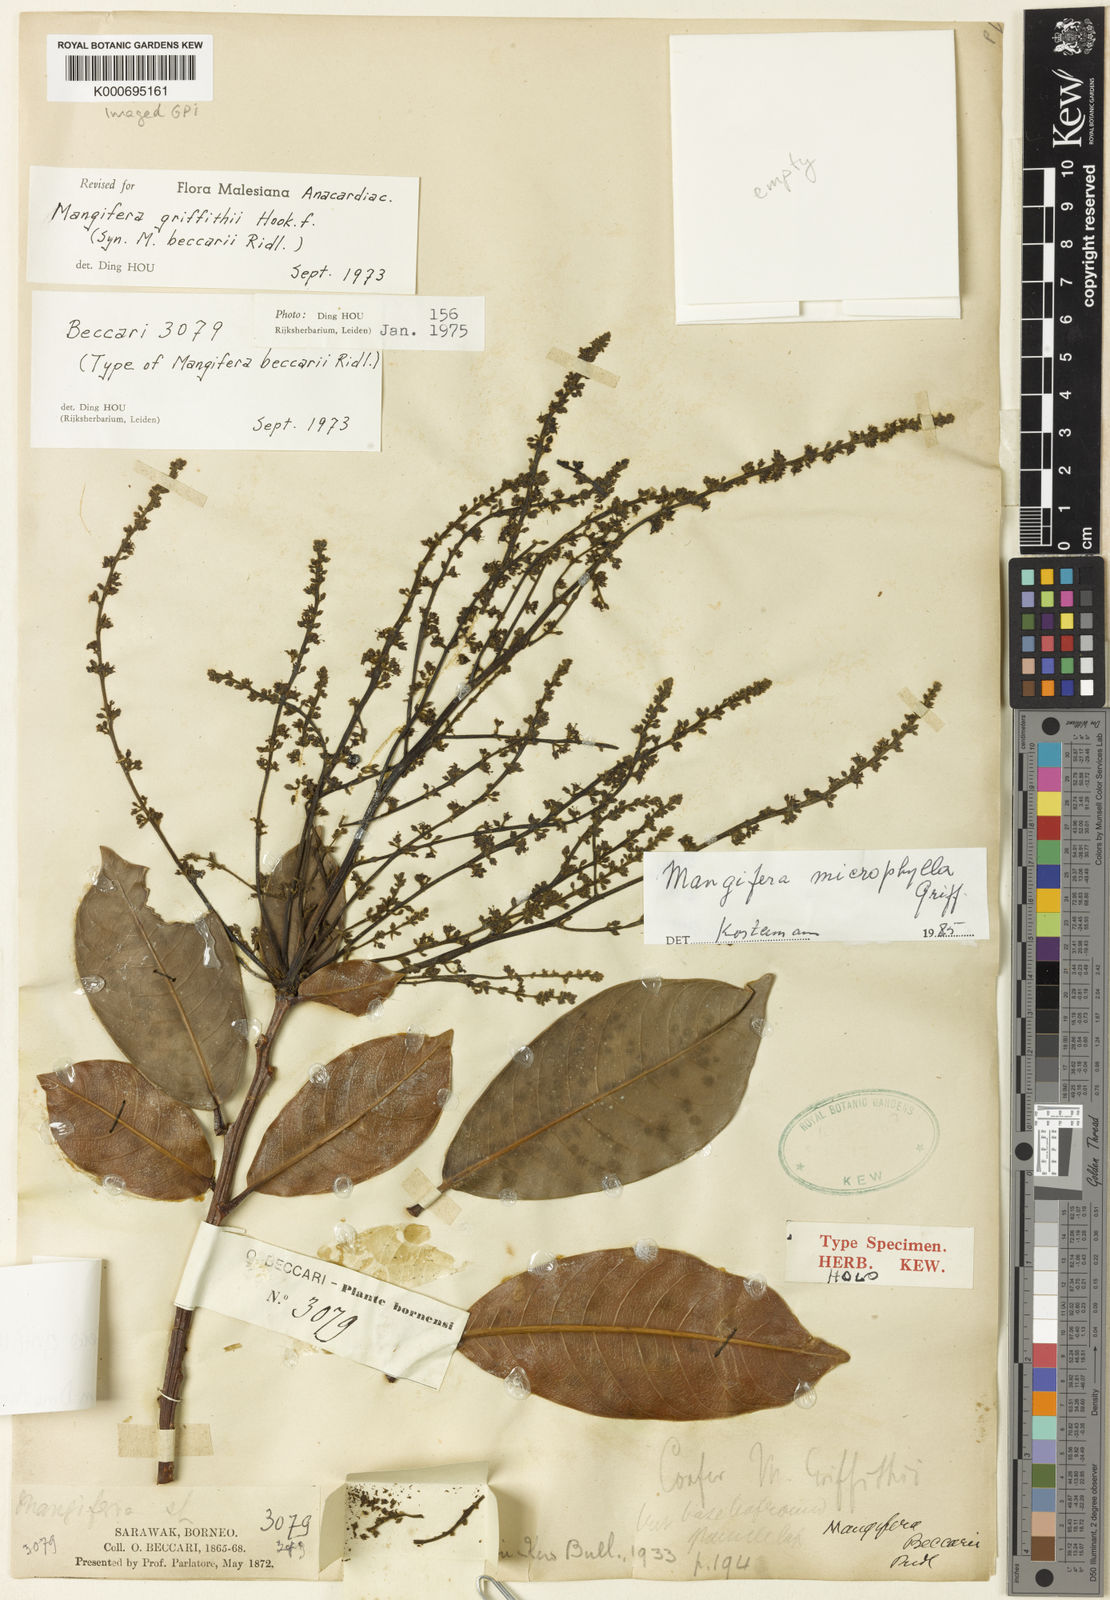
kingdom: Plantae
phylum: Tracheophyta
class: Magnoliopsida
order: Sapindales
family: Anacardiaceae
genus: Mangifera
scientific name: Mangifera griffithii
